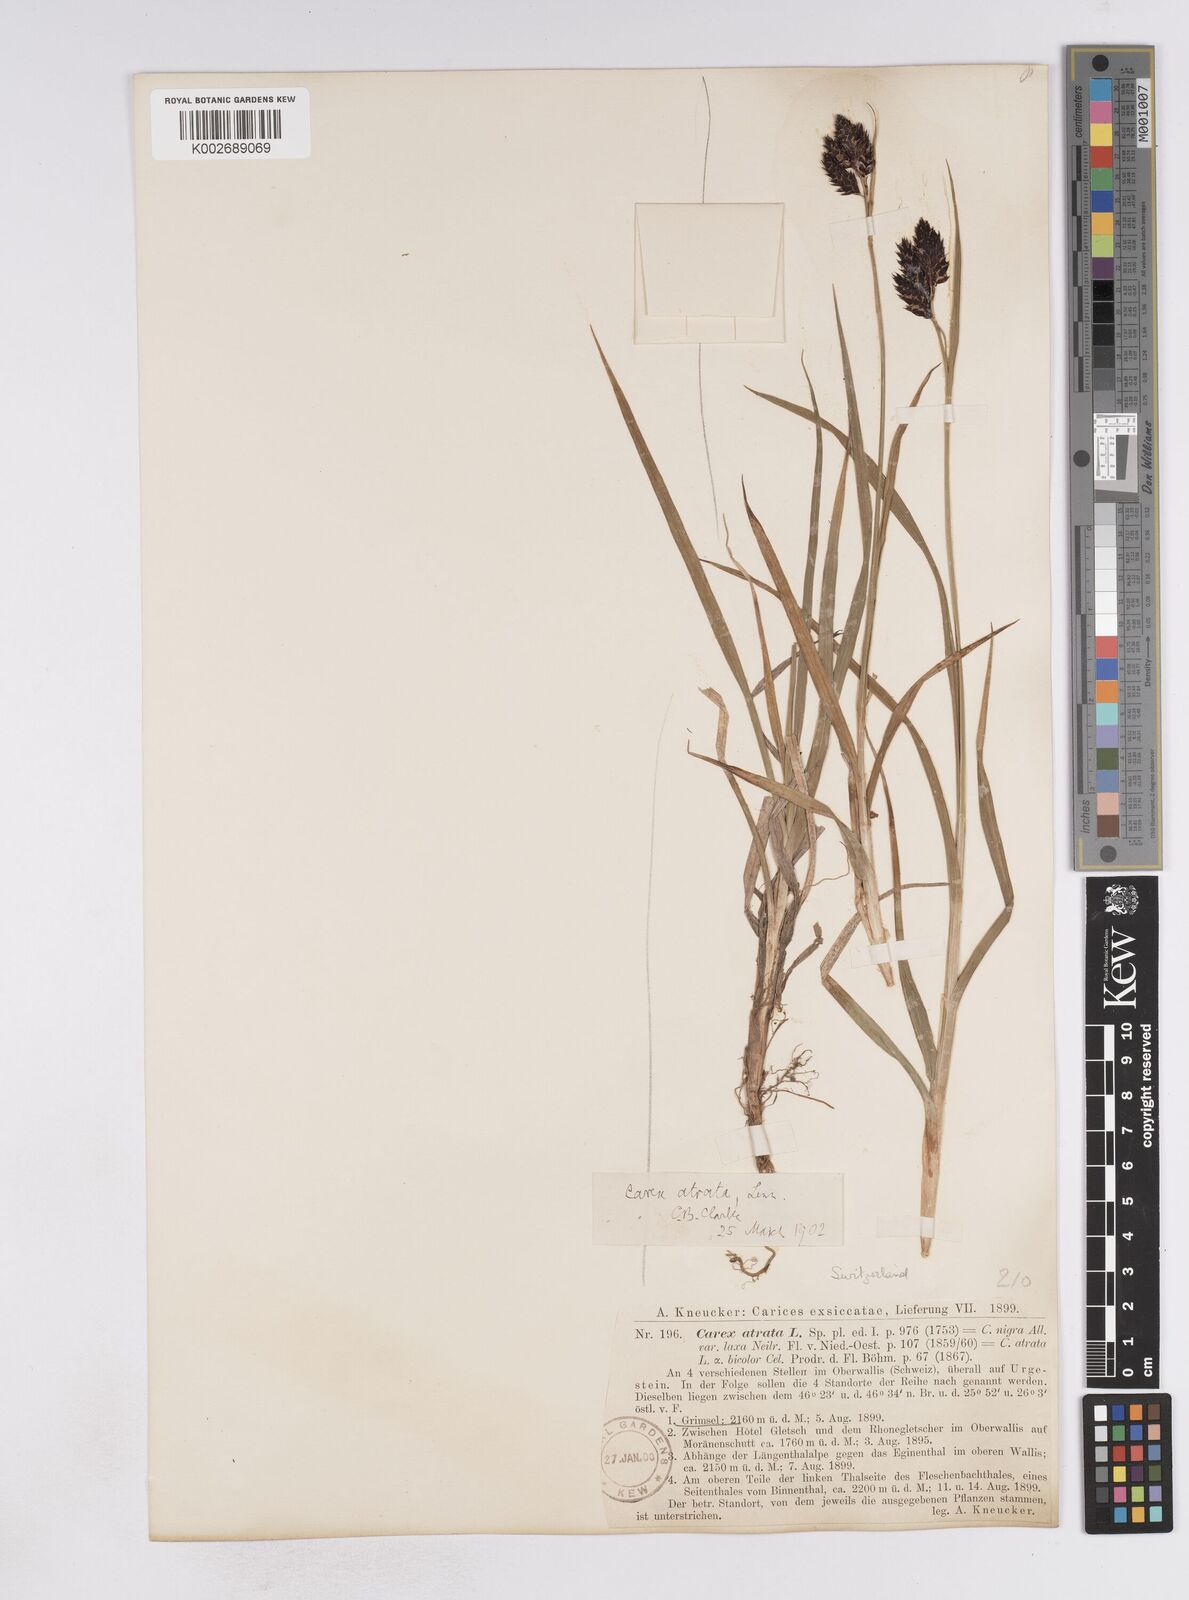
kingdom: Plantae
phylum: Tracheophyta
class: Liliopsida
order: Poales
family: Cyperaceae
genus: Carex
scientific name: Carex atrata
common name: Black alpine sedge
